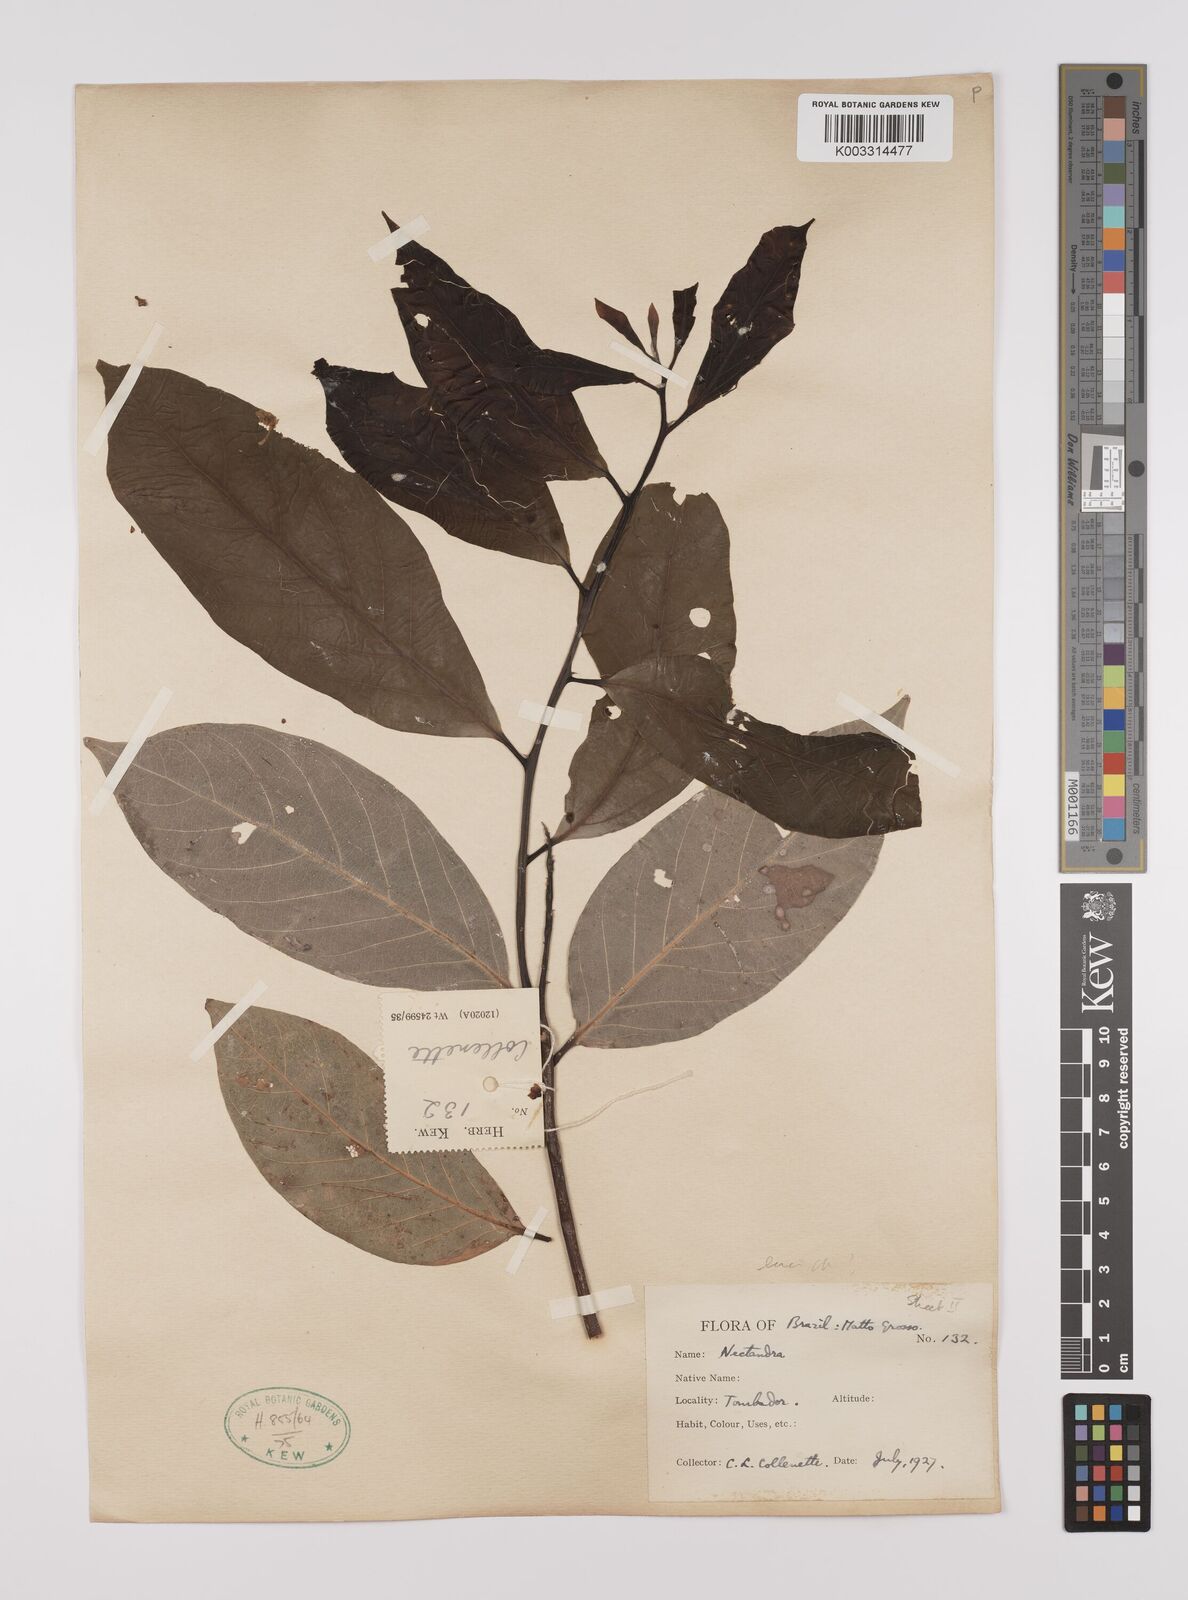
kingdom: Plantae
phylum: Tracheophyta
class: Magnoliopsida
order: Laurales
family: Lauraceae
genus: Nectandra
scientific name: Nectandra leucantha
